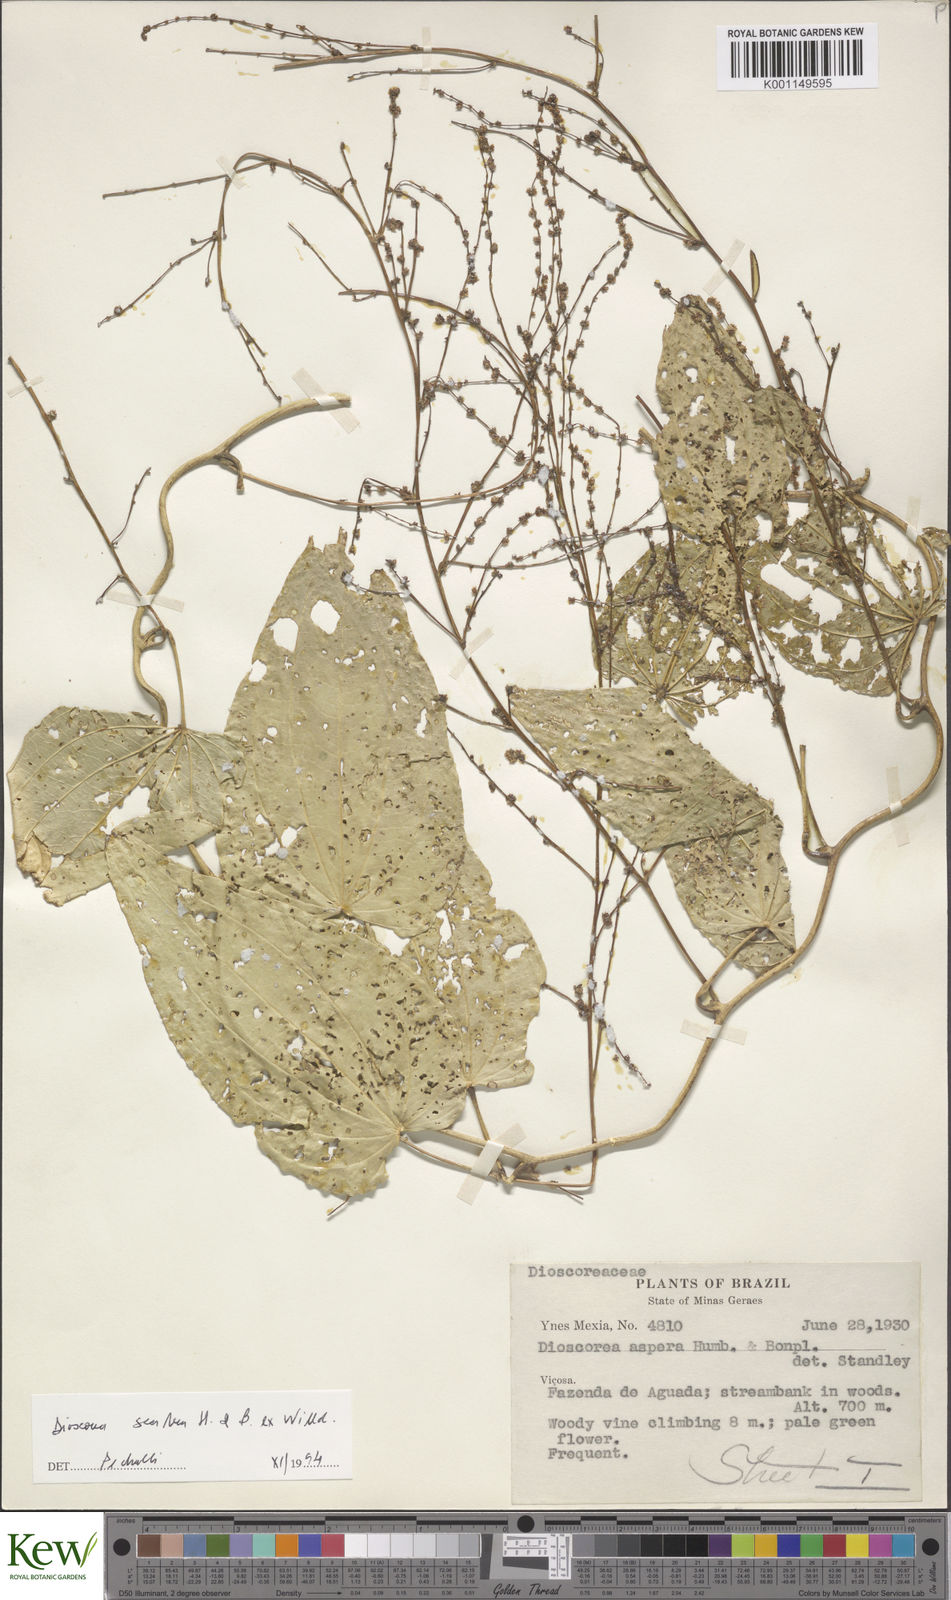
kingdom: Plantae
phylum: Tracheophyta
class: Liliopsida
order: Dioscoreales
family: Dioscoreaceae
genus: Dioscorea
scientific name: Dioscorea aspera
